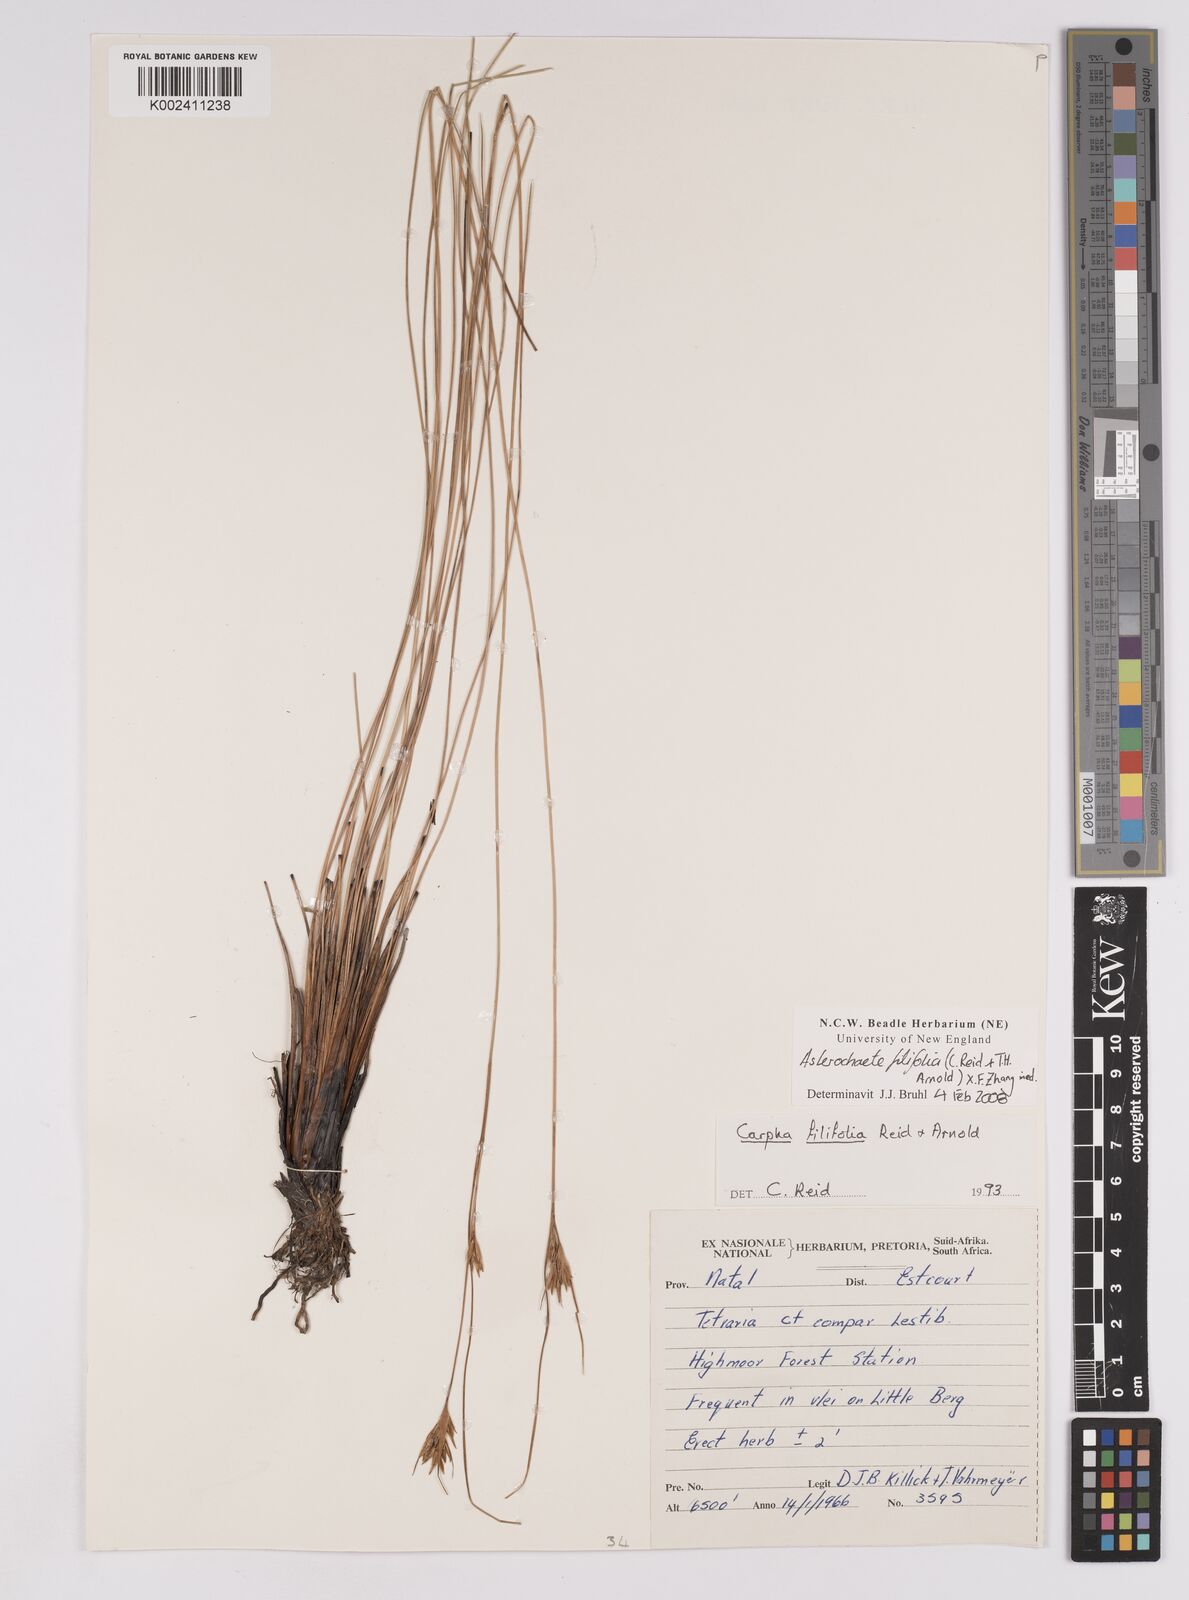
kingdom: Plantae
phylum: Tracheophyta
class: Liliopsida
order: Poales
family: Cyperaceae
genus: Carpha
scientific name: Carpha filifolia
